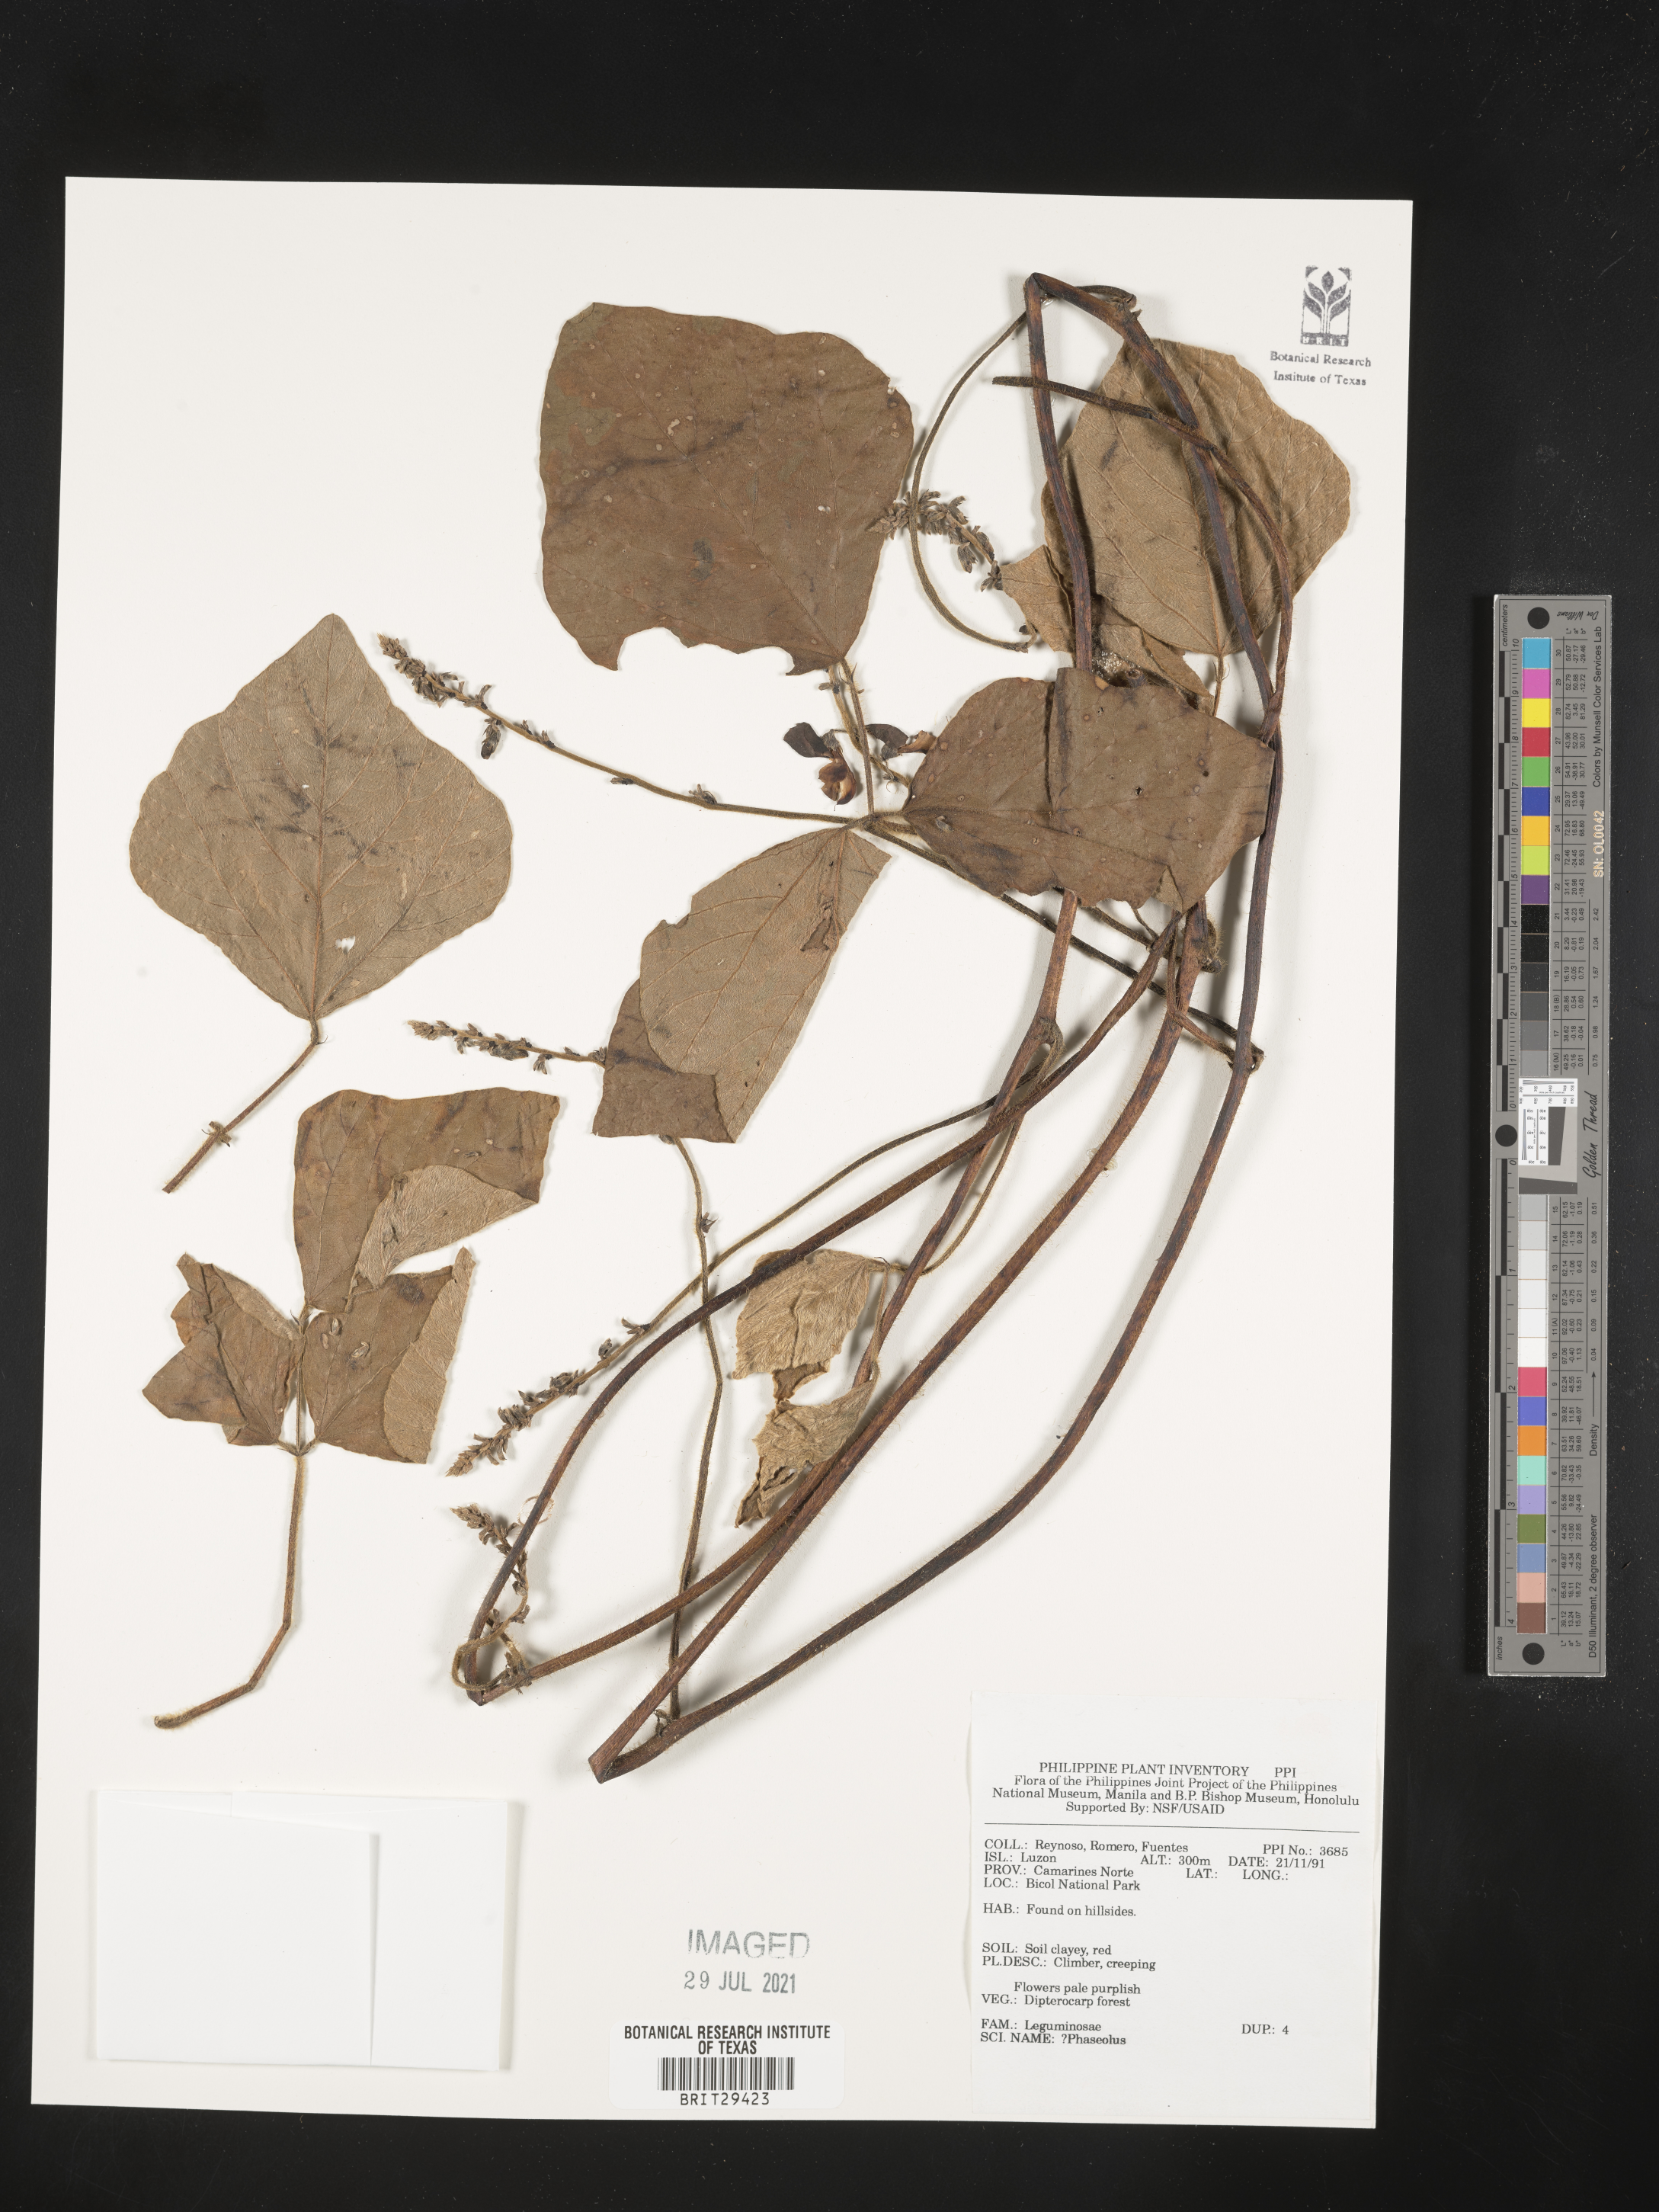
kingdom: Plantae
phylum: Tracheophyta
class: Magnoliopsida
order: Fabales
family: Fabaceae
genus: Phaseolus
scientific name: Phaseolus
